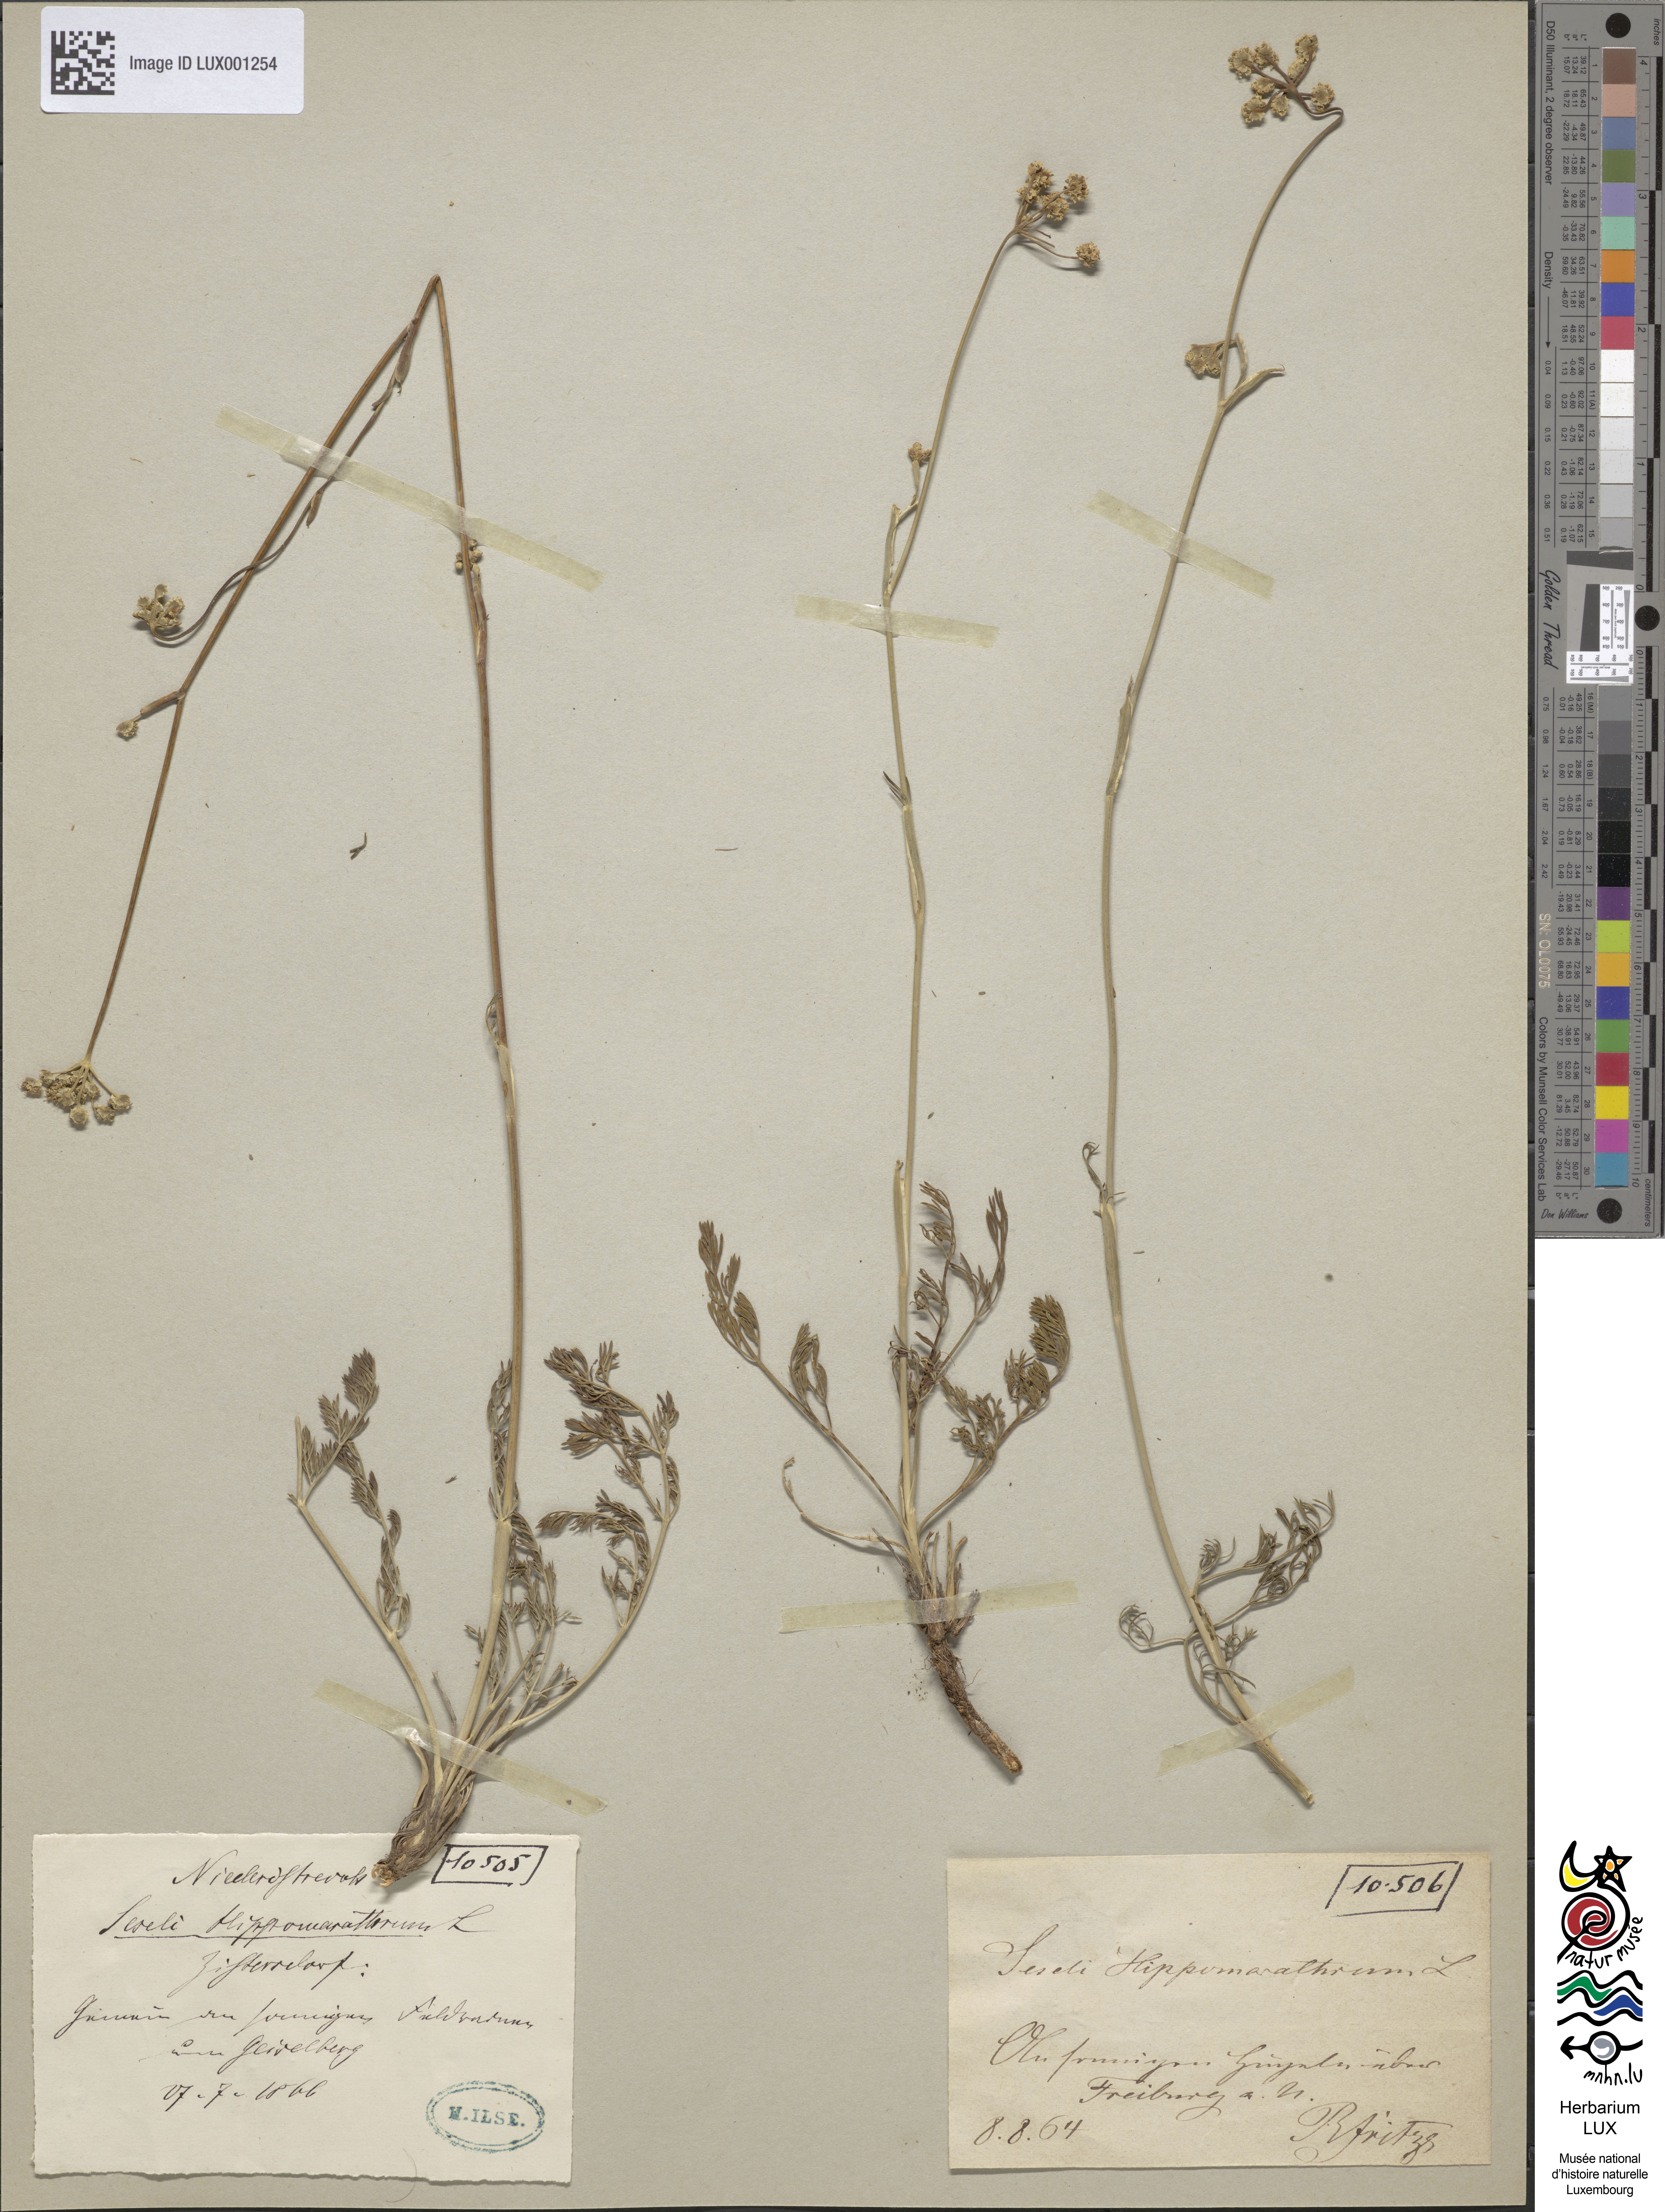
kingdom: Plantae
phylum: Tracheophyta
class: Magnoliopsida
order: Apiales
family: Apiaceae
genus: Hippomarathrum
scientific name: Hippomarathrum vulgare
